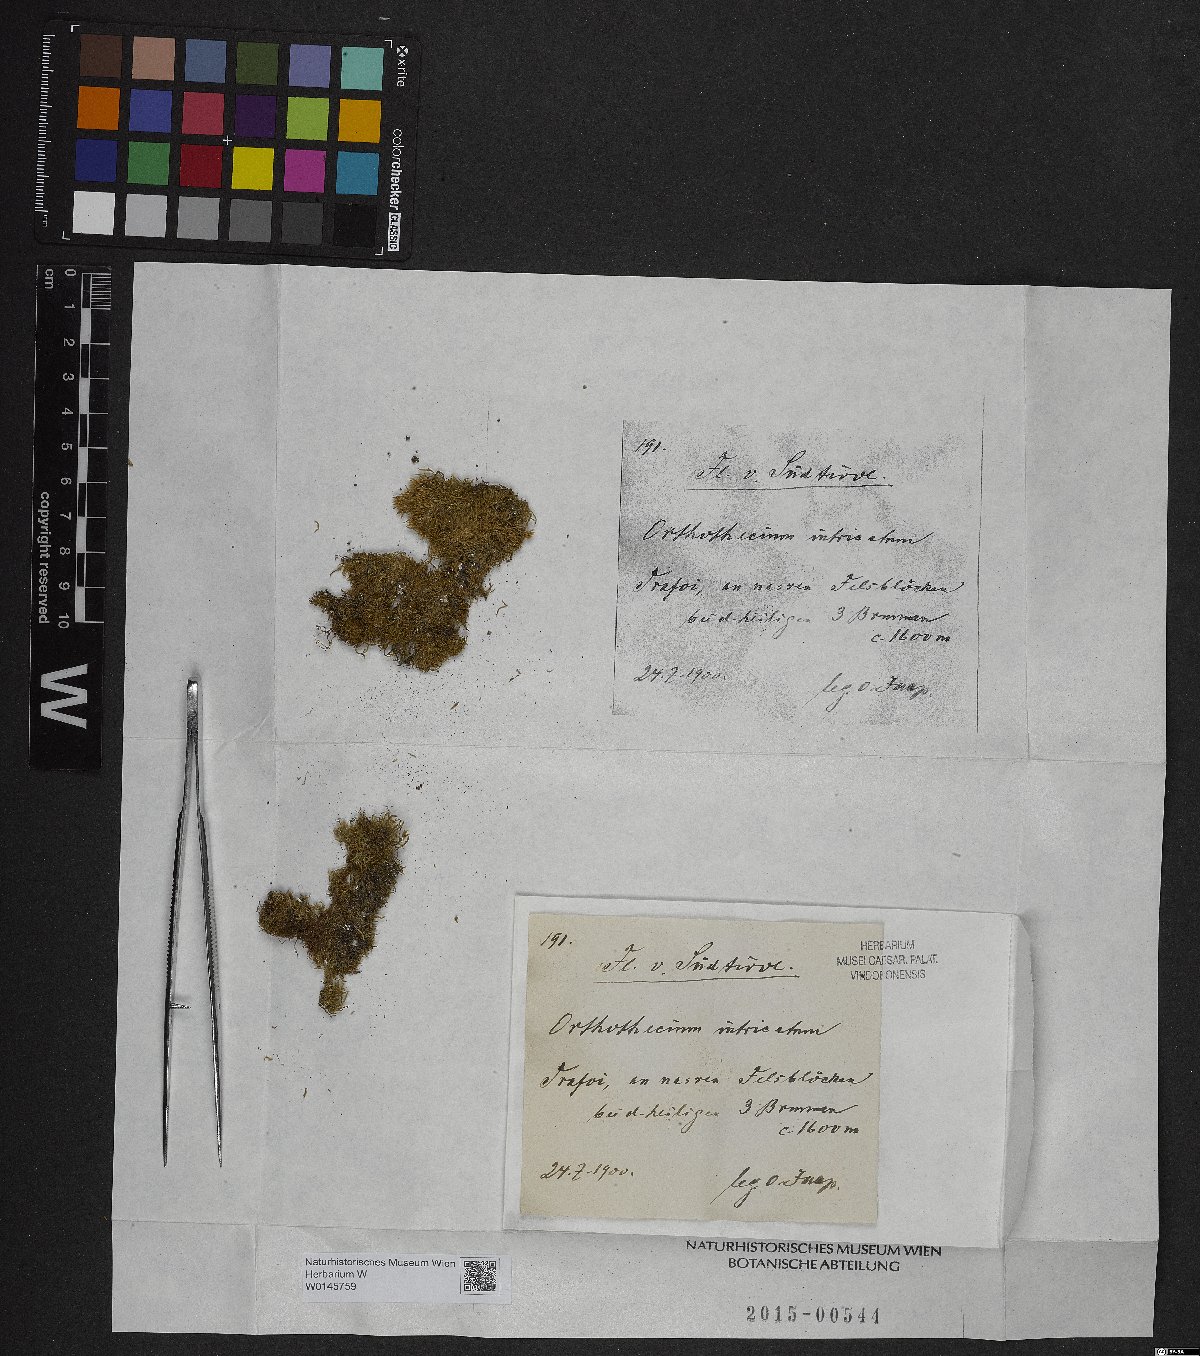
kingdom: Plantae
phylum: Bryophyta
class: Bryopsida
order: Hypnales
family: Plagiotheciaceae
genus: Orthothecium
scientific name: Orthothecium intricatum
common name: Fine-leaved erect-capsule moss
